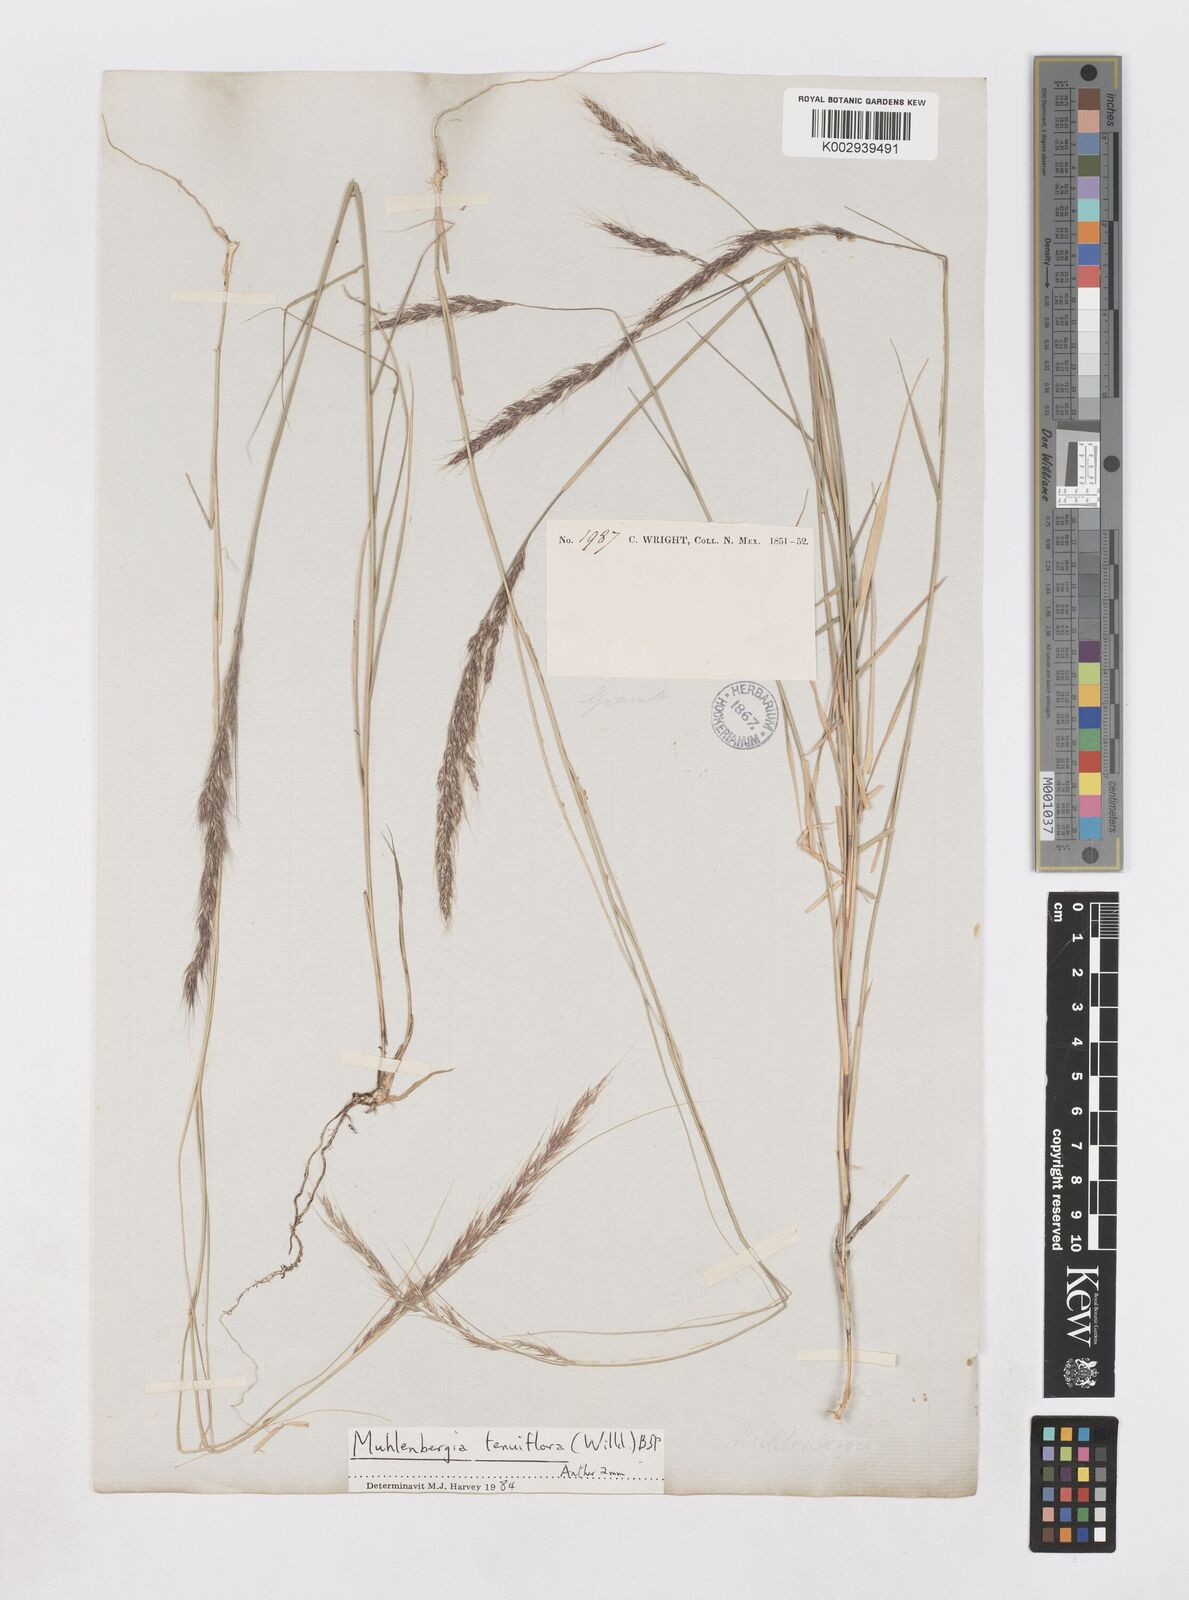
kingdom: Plantae
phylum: Tracheophyta
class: Liliopsida
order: Poales
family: Poaceae
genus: Muhlenbergia
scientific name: Muhlenbergia sylvatica
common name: Woodland muhly
